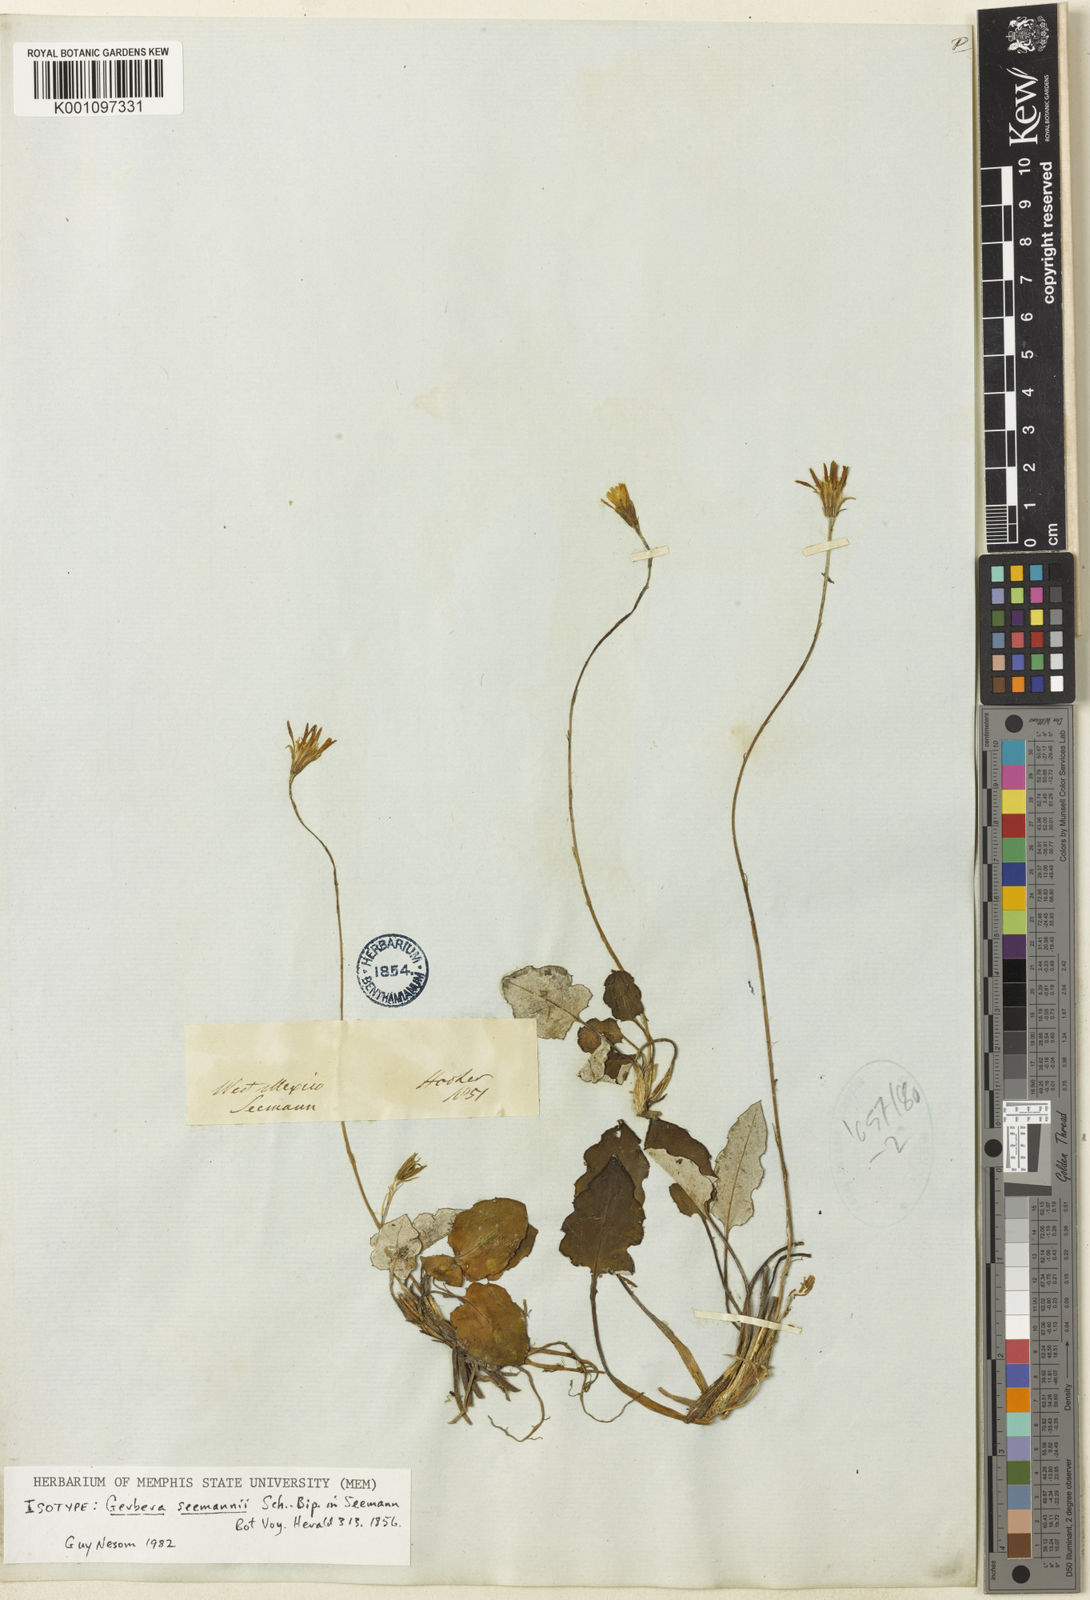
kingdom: Plantae
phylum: Tracheophyta
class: Magnoliopsida
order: Asterales
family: Asteraceae
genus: Leibnitzia
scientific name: Leibnitzia lyrata
